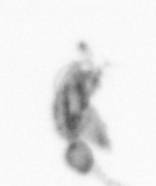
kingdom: Animalia
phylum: Arthropoda
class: Copepoda
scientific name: Copepoda
